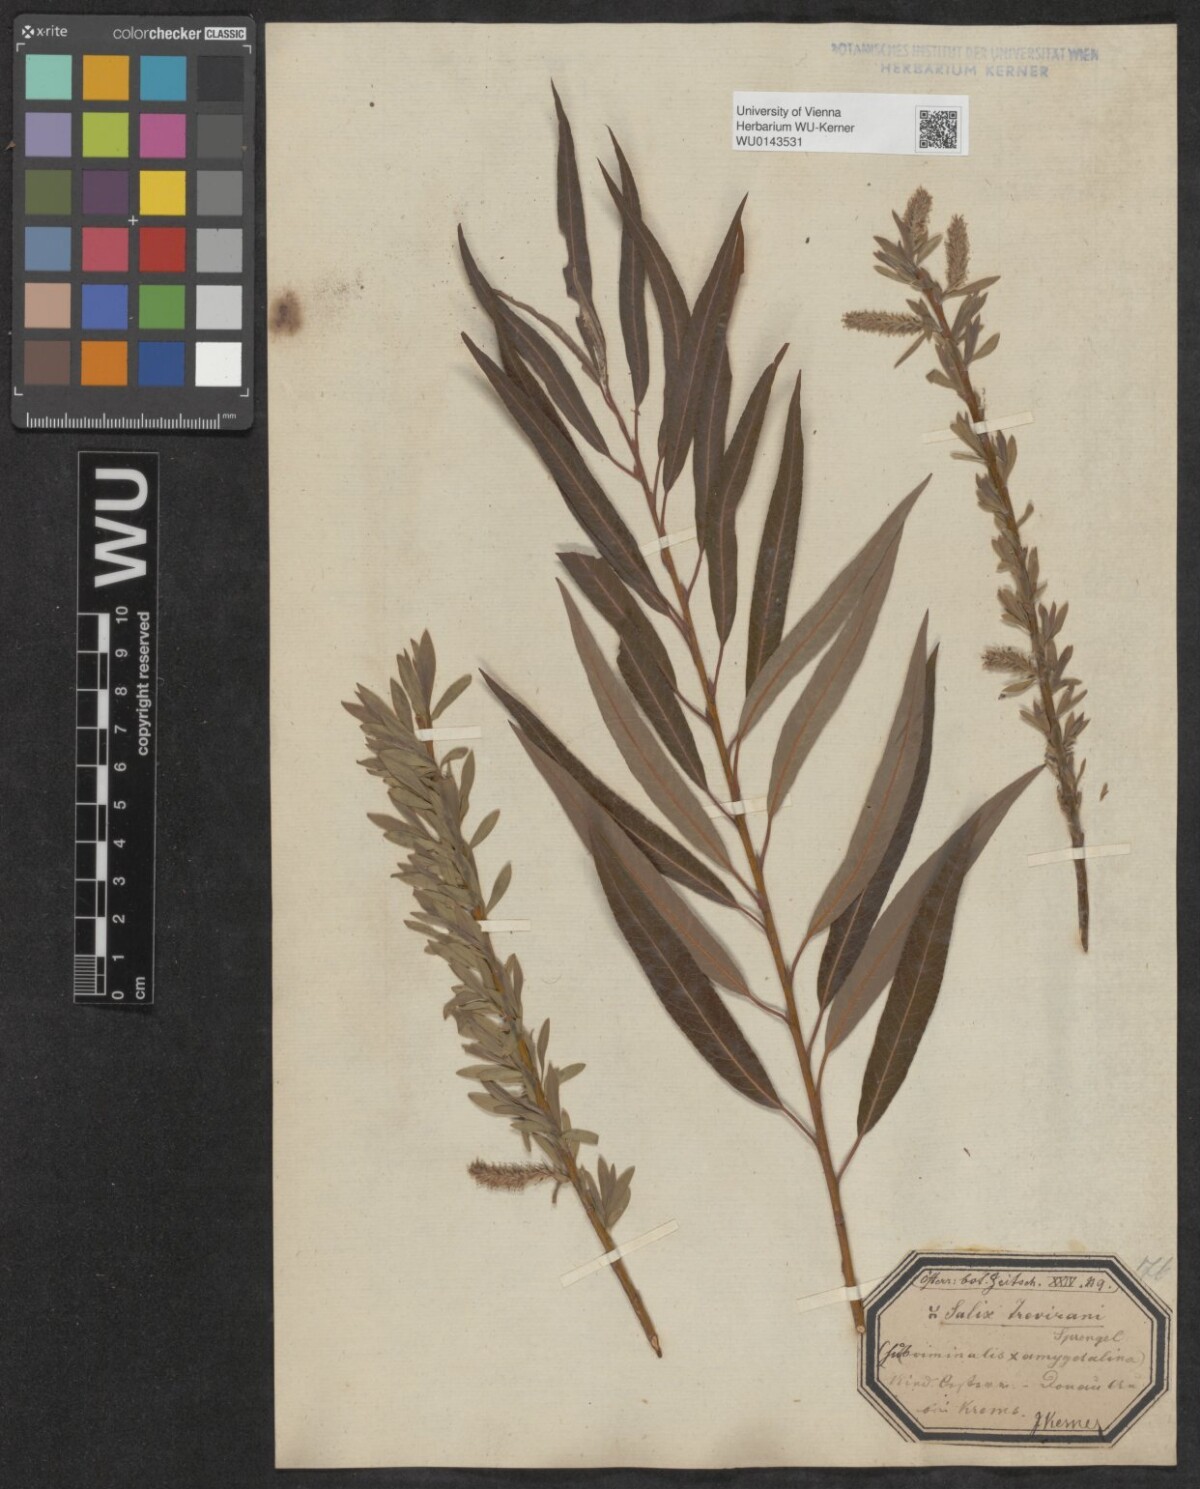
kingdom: Plantae
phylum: Tracheophyta
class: Magnoliopsida
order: Malpighiales
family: Salicaceae
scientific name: Salicaceae
